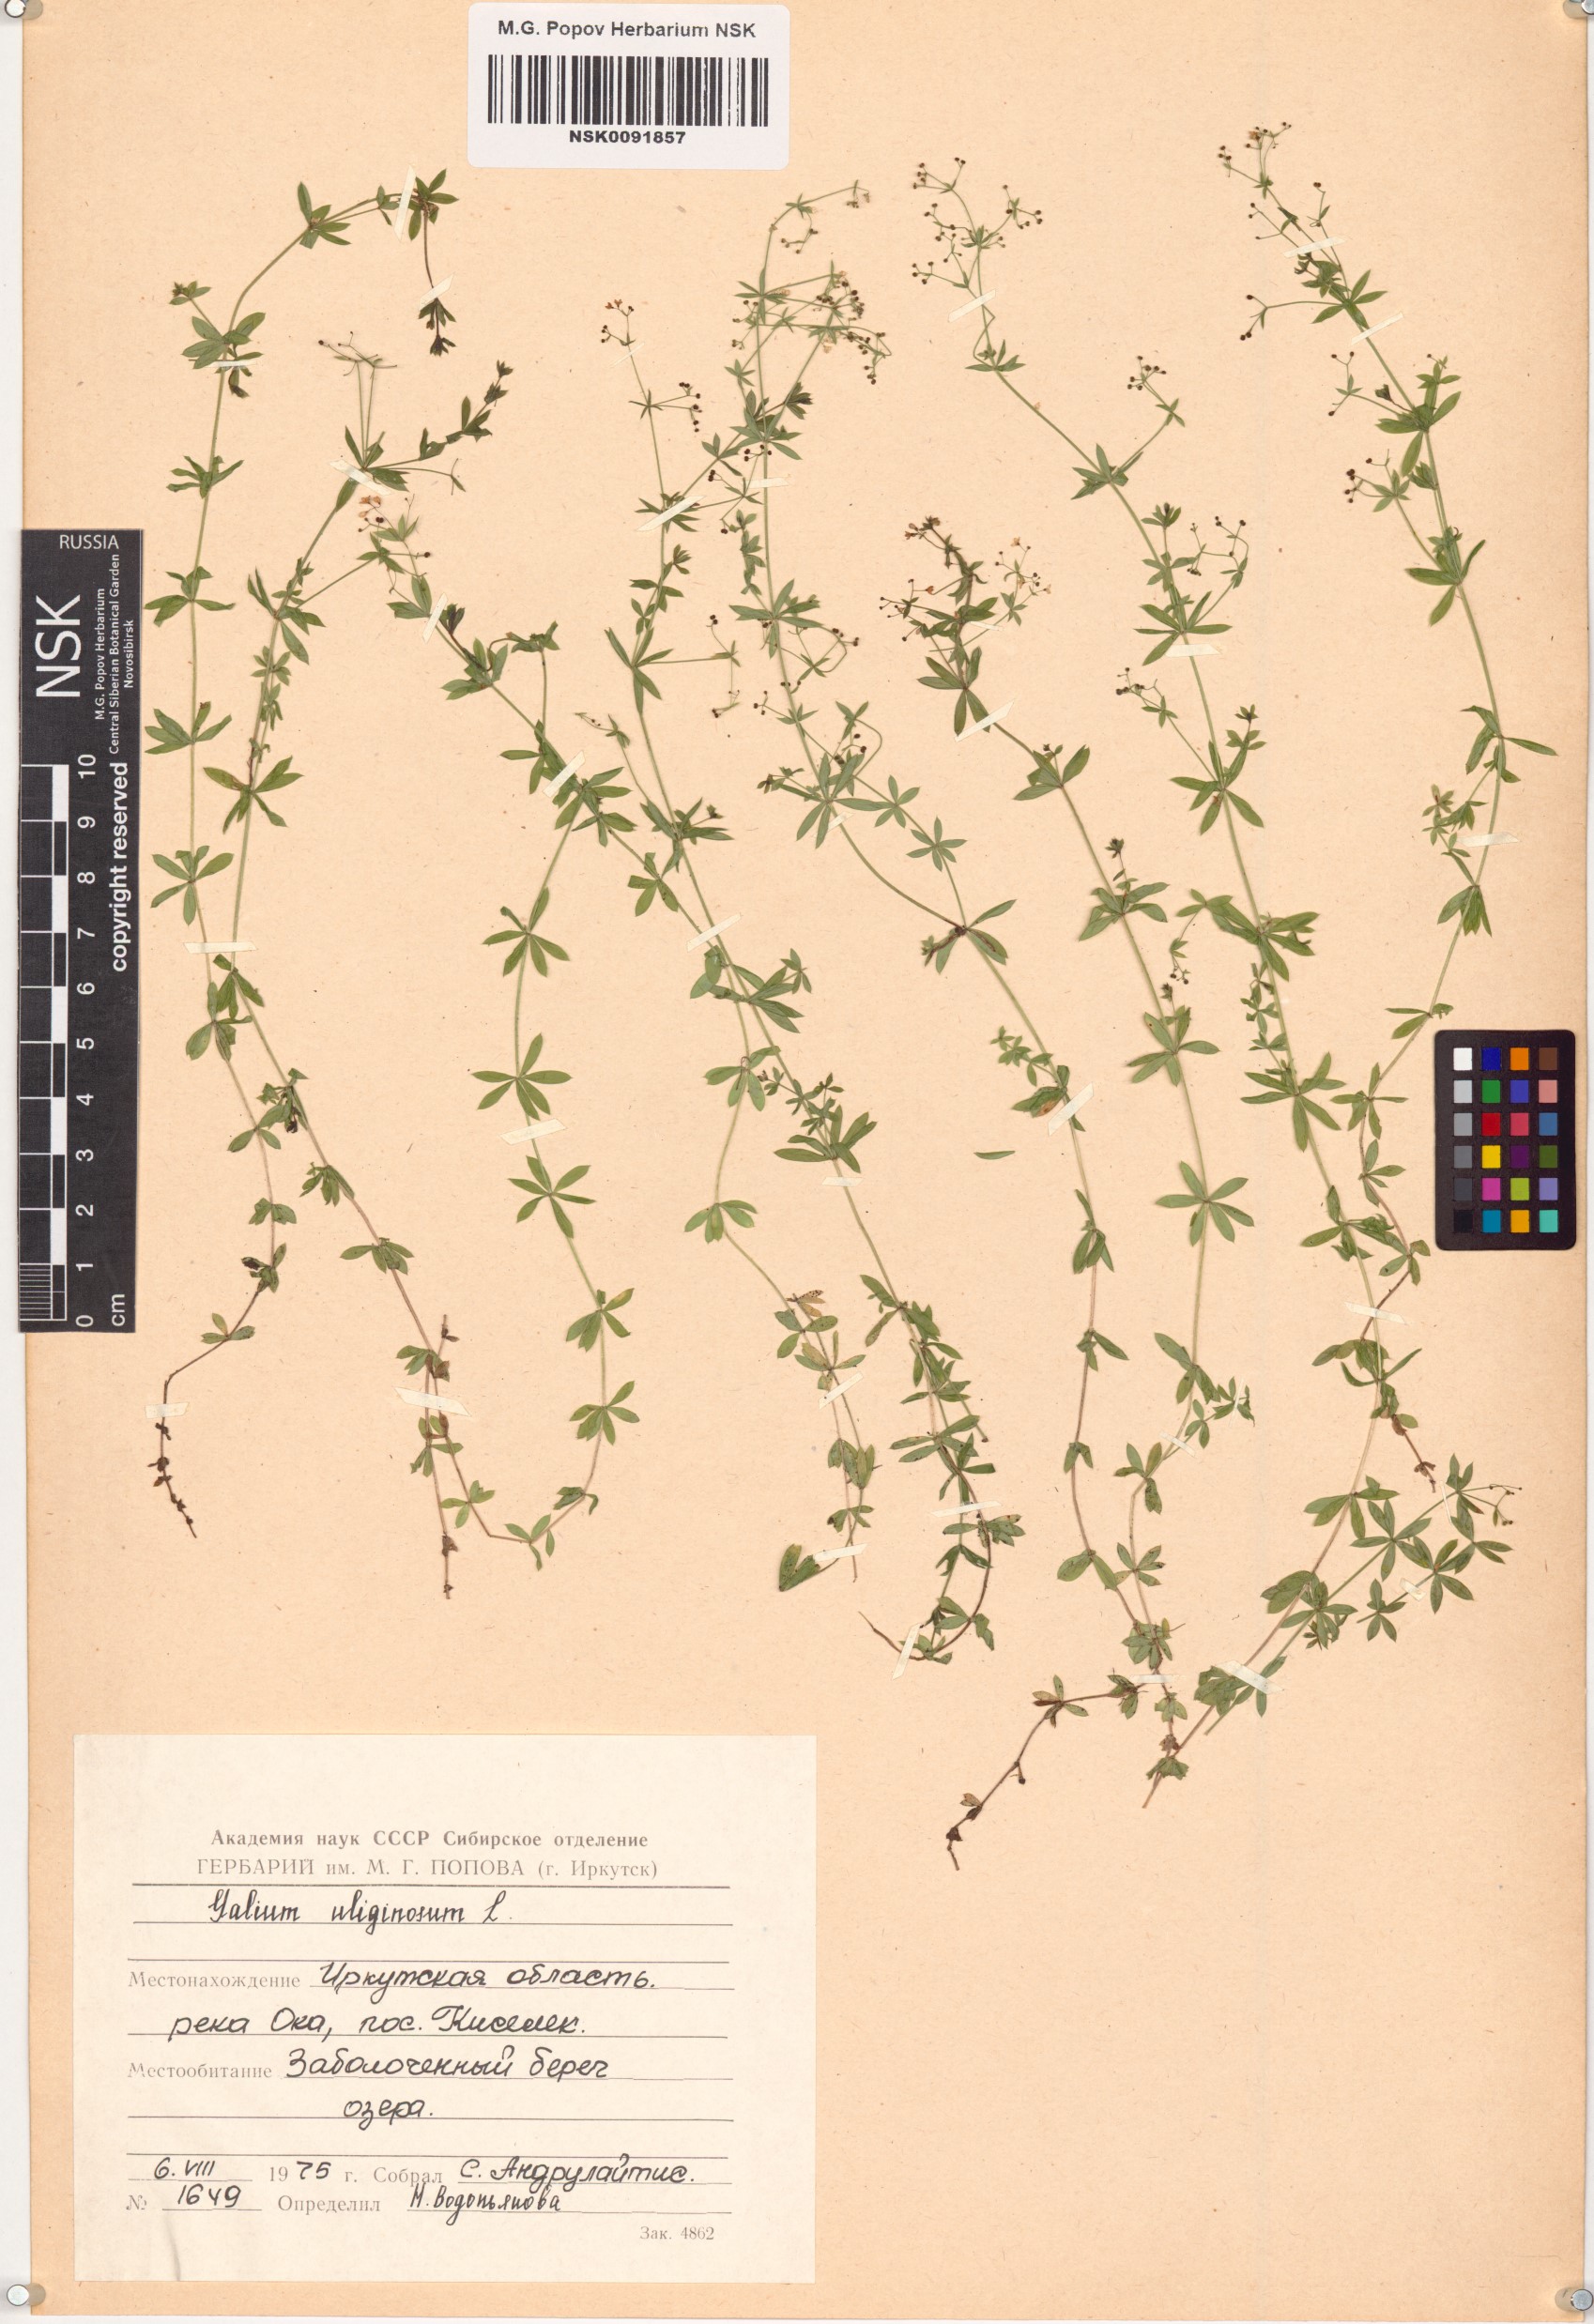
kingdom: Plantae
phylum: Tracheophyta
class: Magnoliopsida
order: Gentianales
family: Rubiaceae
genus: Galium
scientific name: Galium uliginosum
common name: Fen bedstraw
